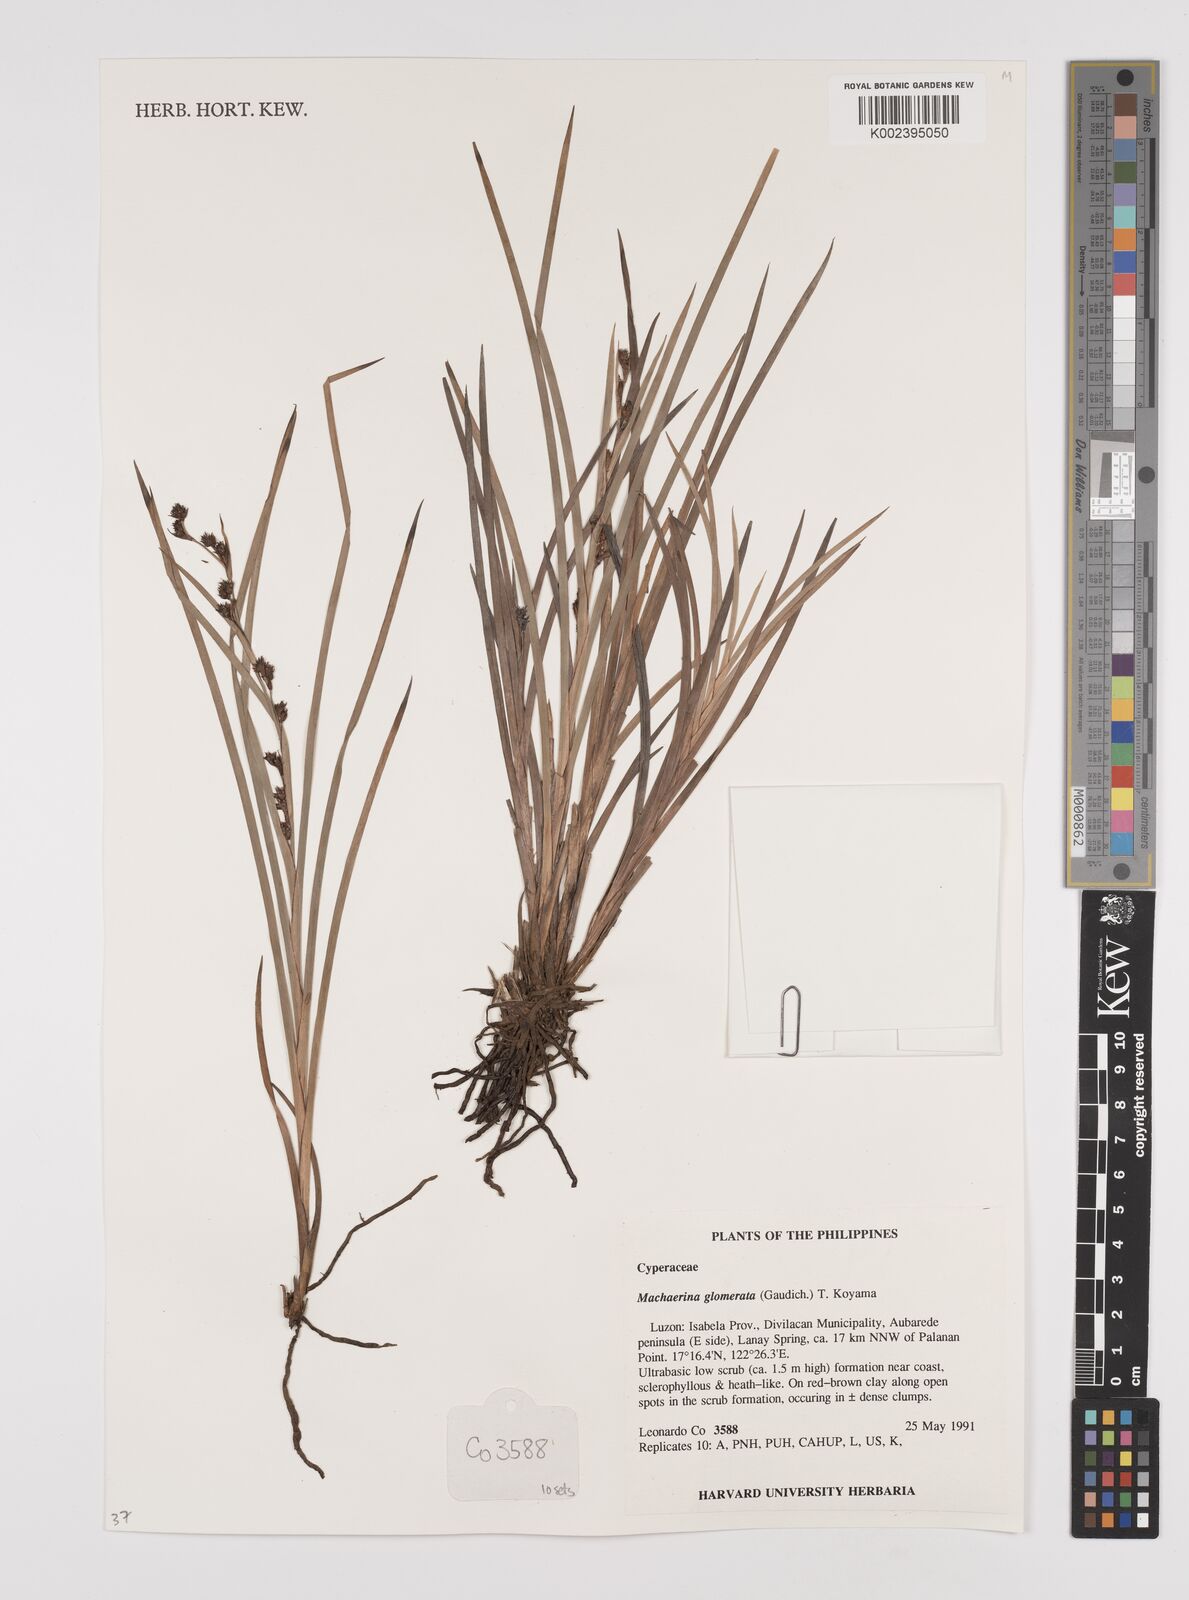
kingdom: Plantae
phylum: Tracheophyta
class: Liliopsida
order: Poales
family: Cyperaceae
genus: Machaerina
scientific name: Machaerina glomerata
